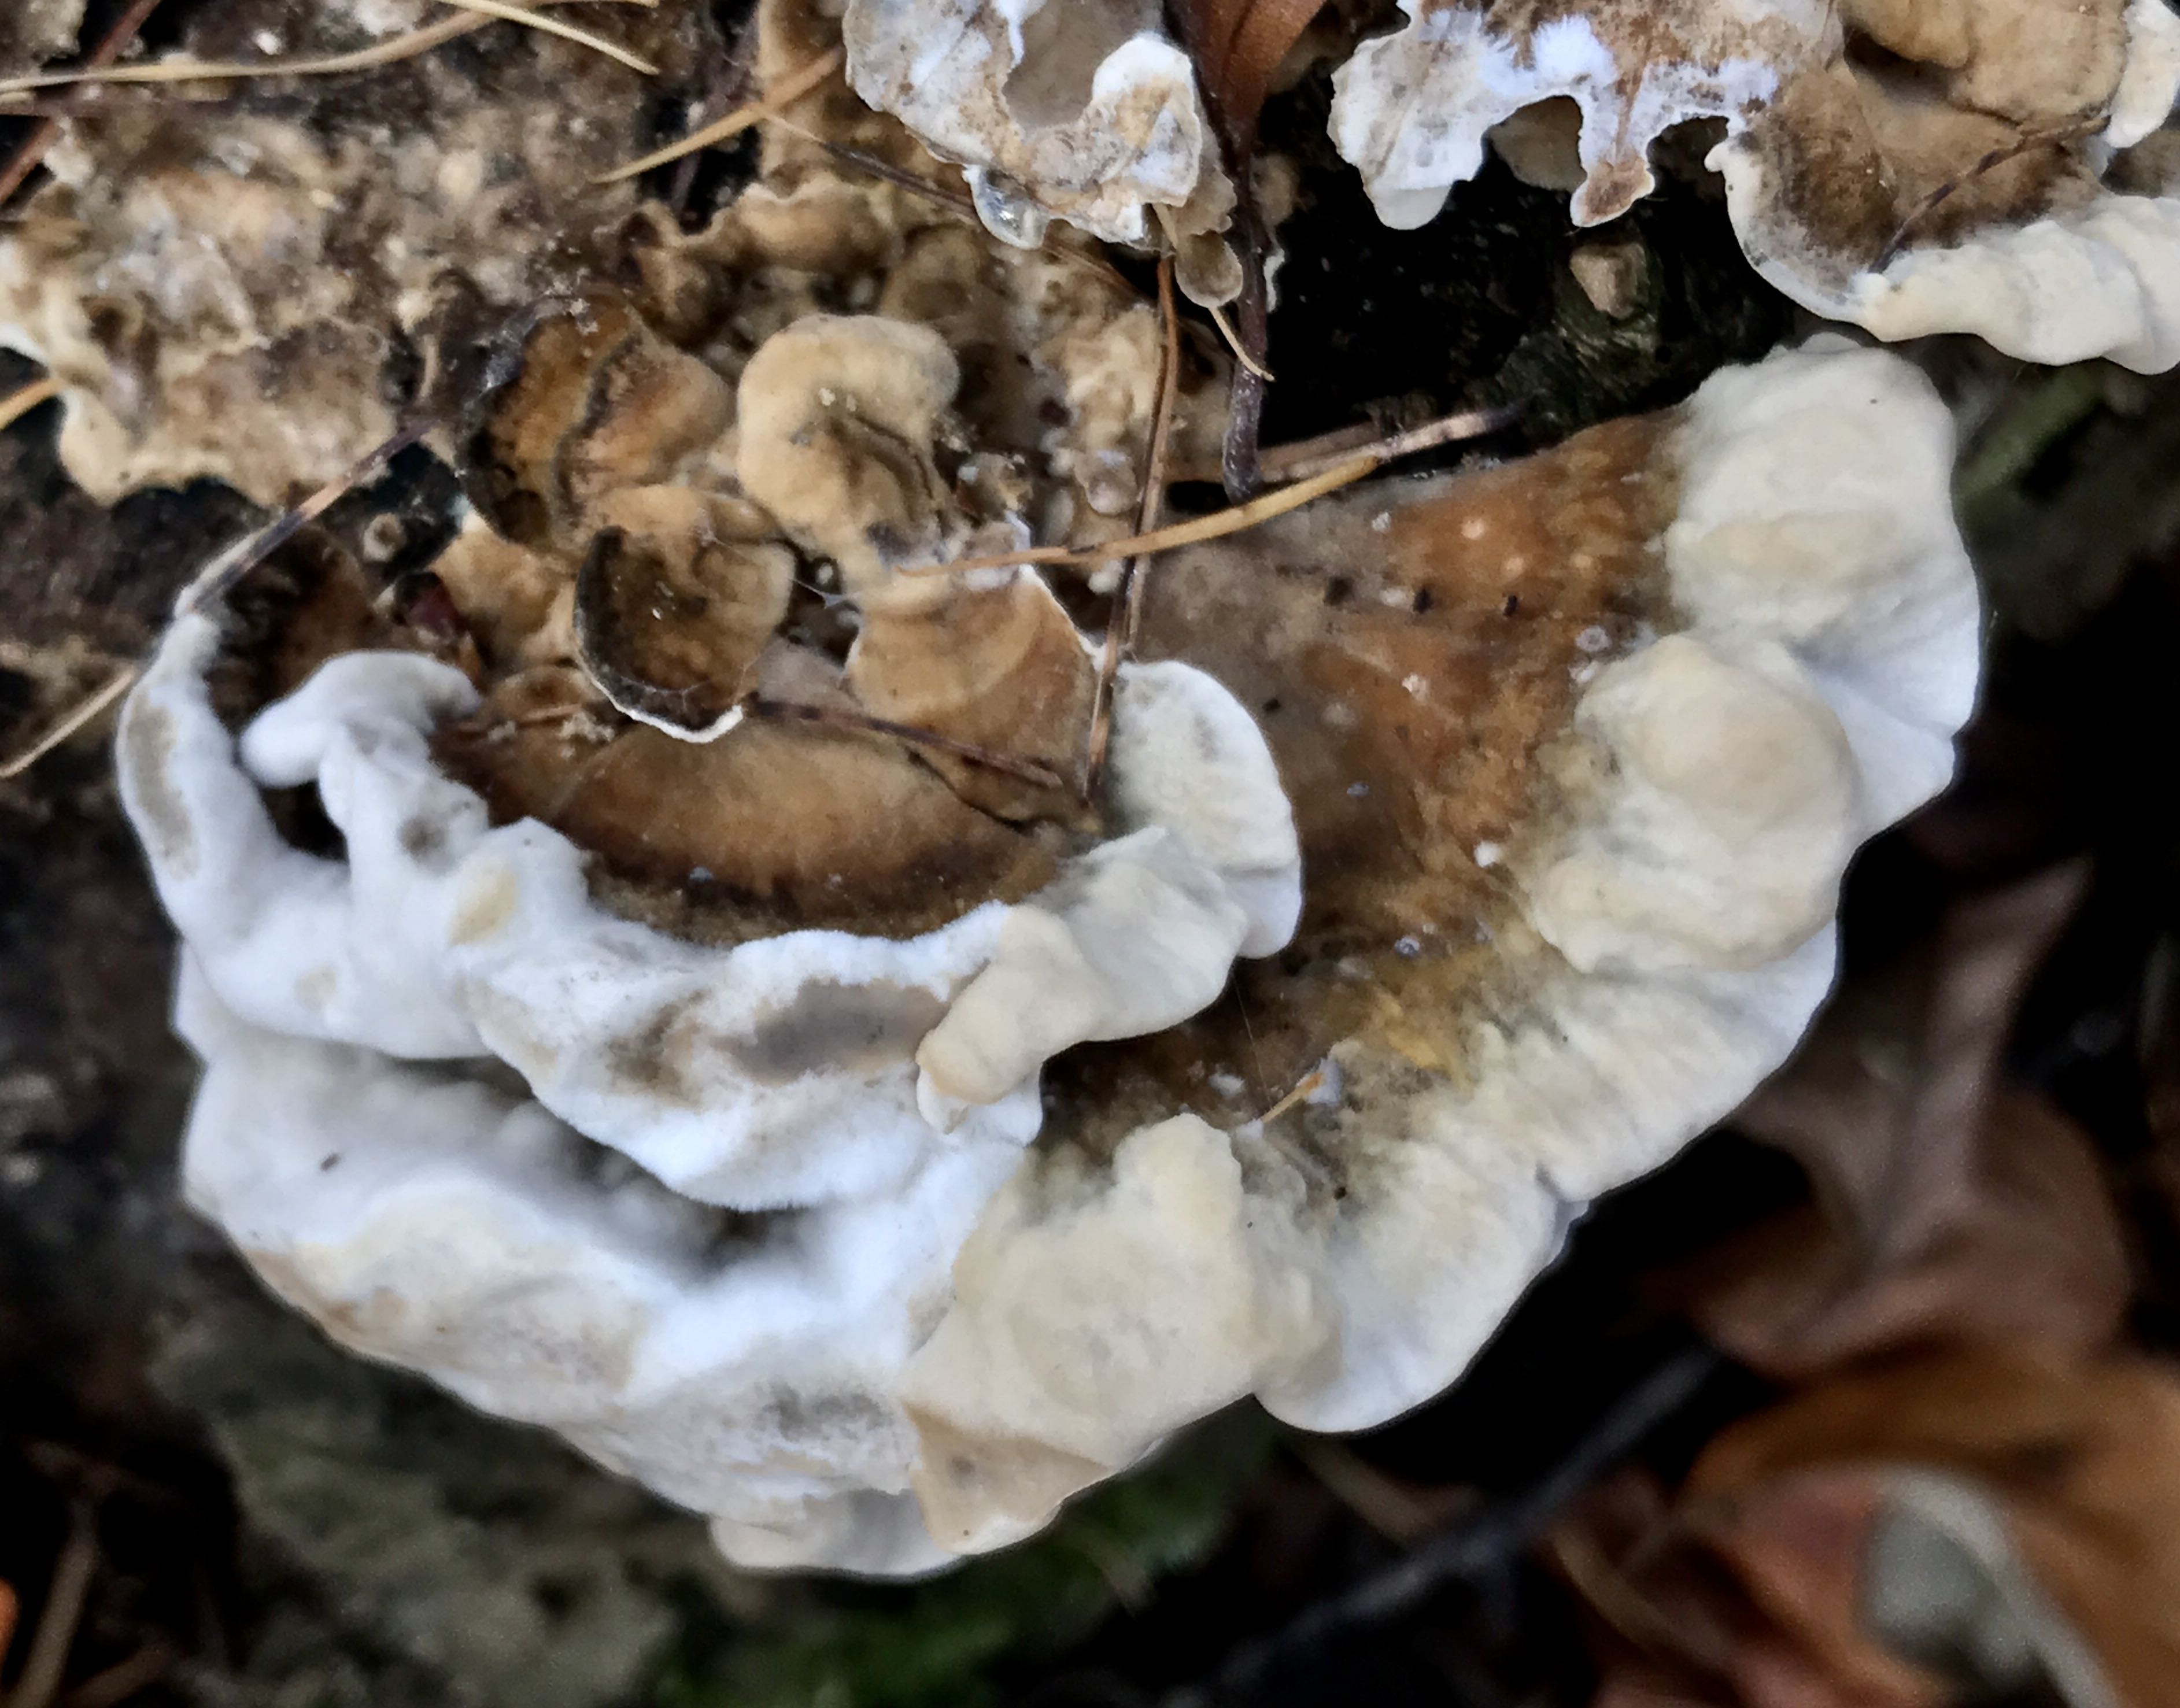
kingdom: Fungi
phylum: Basidiomycota
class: Agaricomycetes
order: Polyporales
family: Phanerochaetaceae
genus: Bjerkandera
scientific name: Bjerkandera adusta
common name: sveden sodporesvamp
